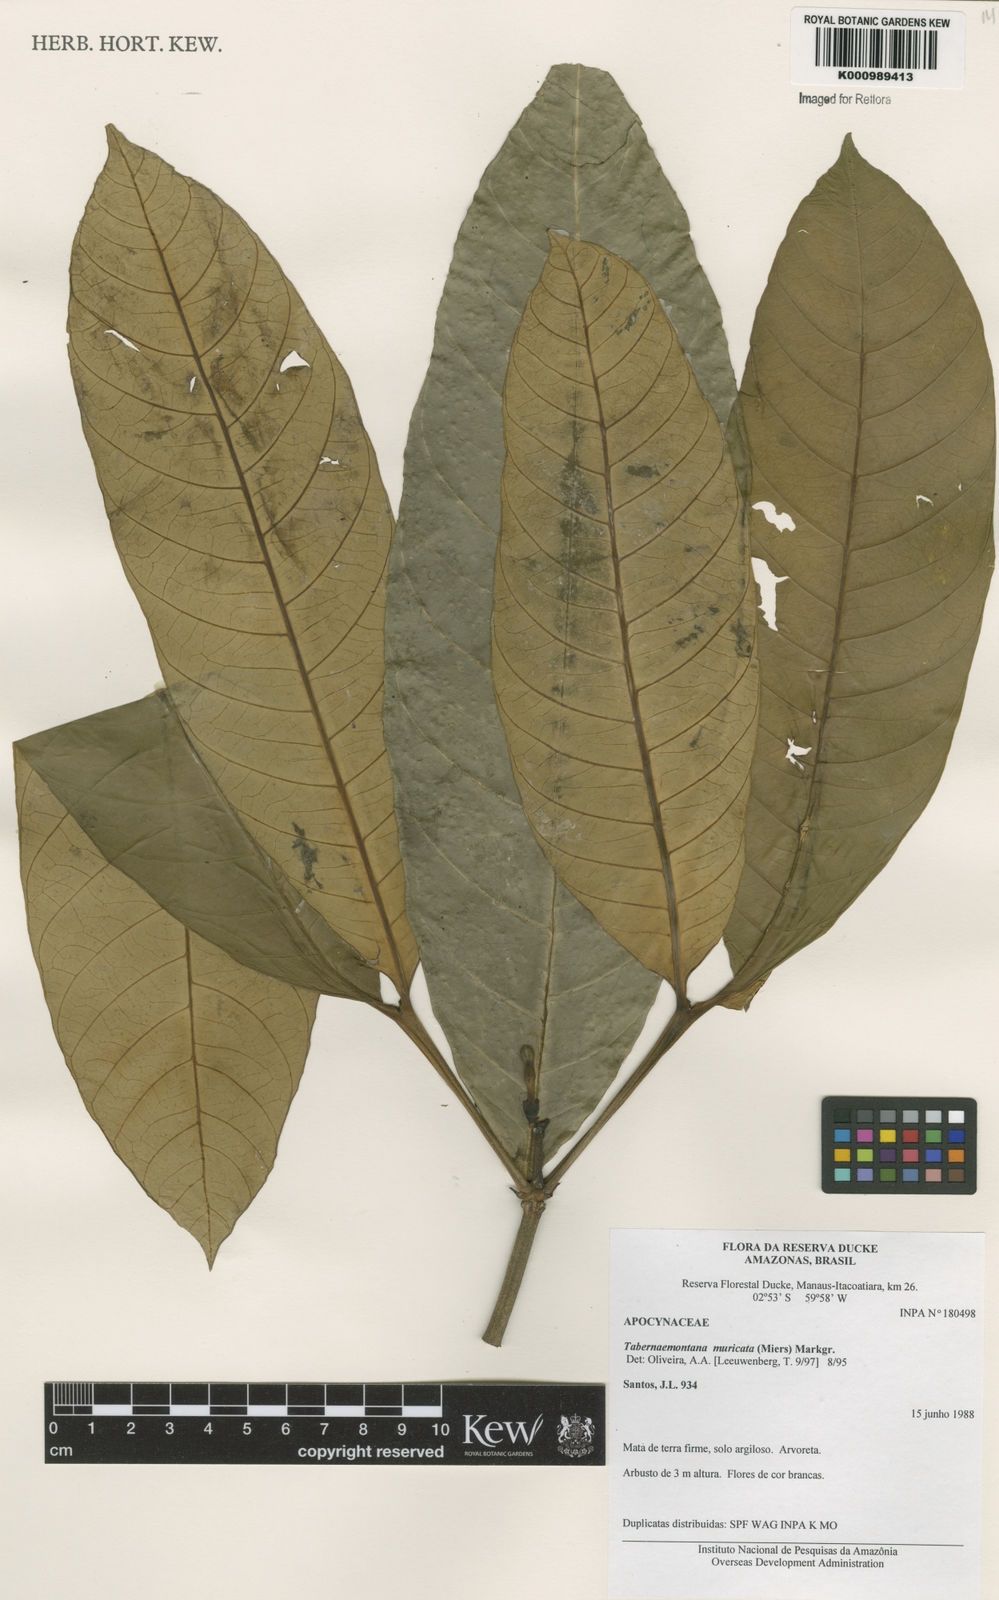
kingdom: Plantae
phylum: Tracheophyta
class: Magnoliopsida
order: Gentianales
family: Apocynaceae
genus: Tabernaemontana
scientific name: Tabernaemontana muricata
